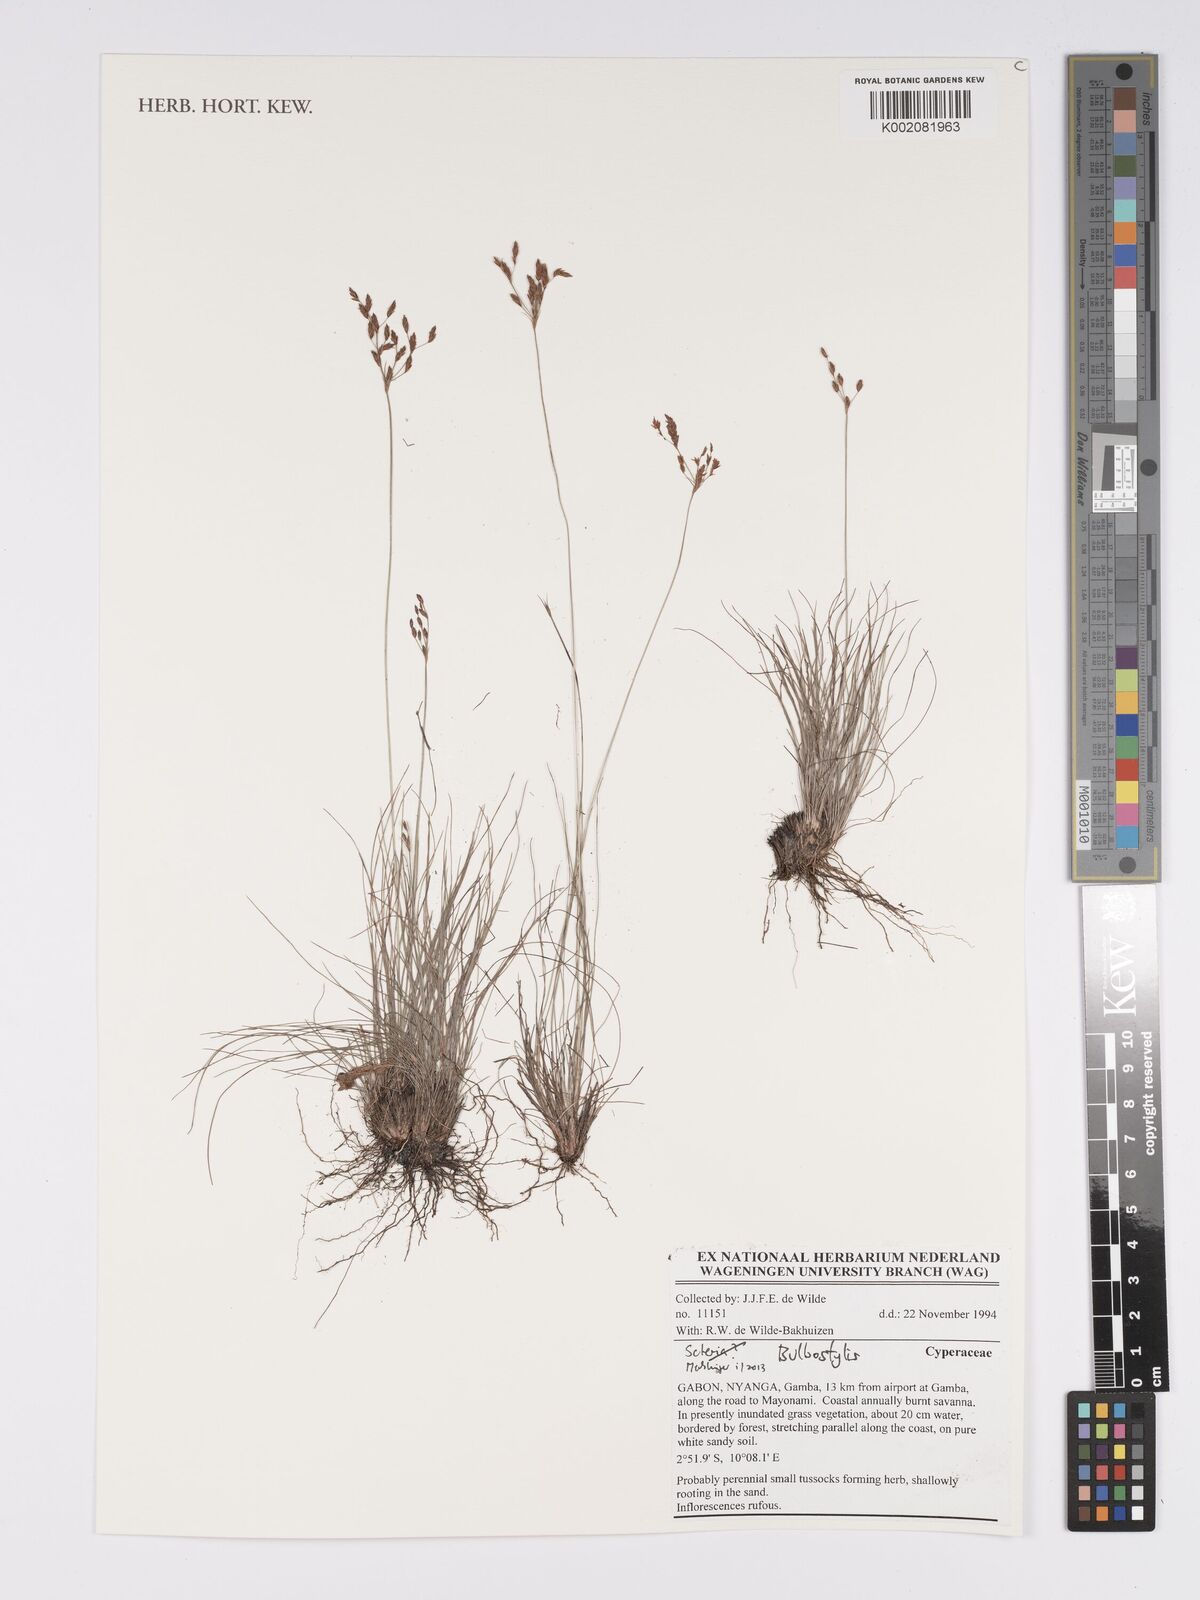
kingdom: Plantae
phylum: Tracheophyta
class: Magnoliopsida
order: Asterales
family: Asteraceae
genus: Bulbostylis
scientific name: Bulbostylis
